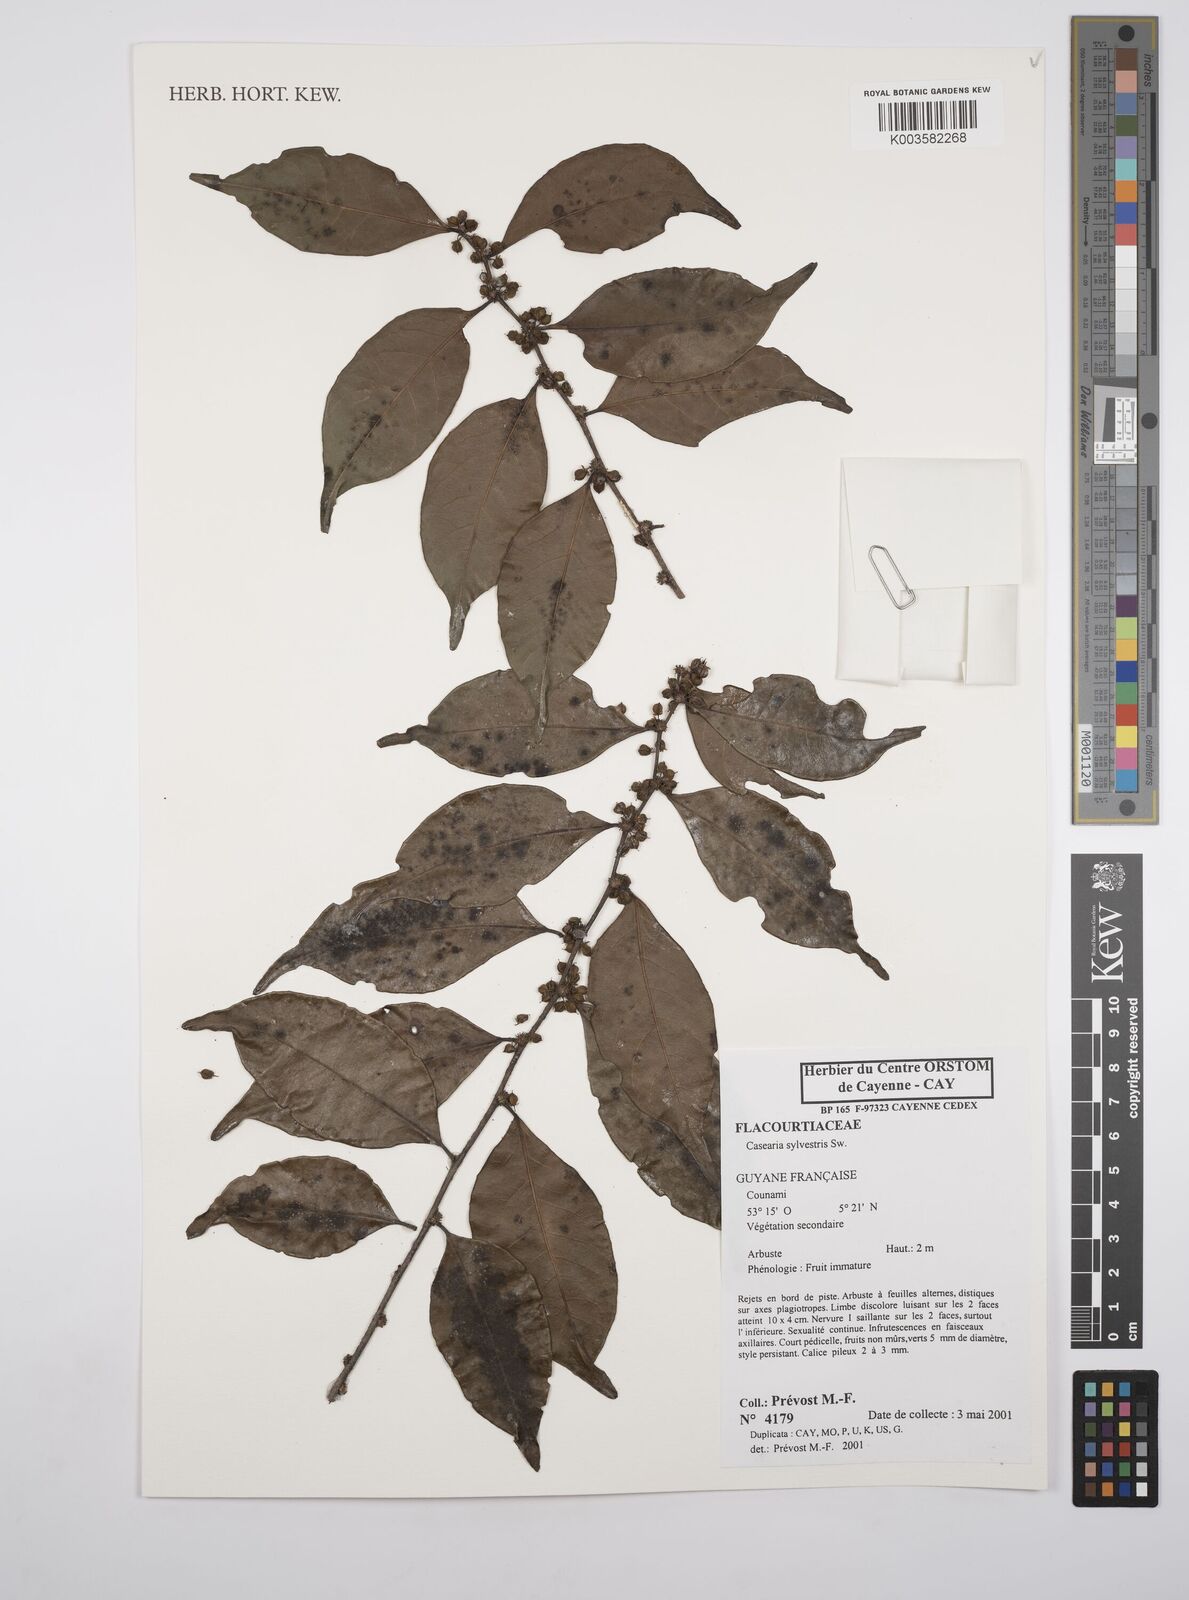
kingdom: Plantae
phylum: Tracheophyta
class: Magnoliopsida
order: Malpighiales
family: Salicaceae
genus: Casearia
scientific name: Casearia sylvestris
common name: Wild sage
